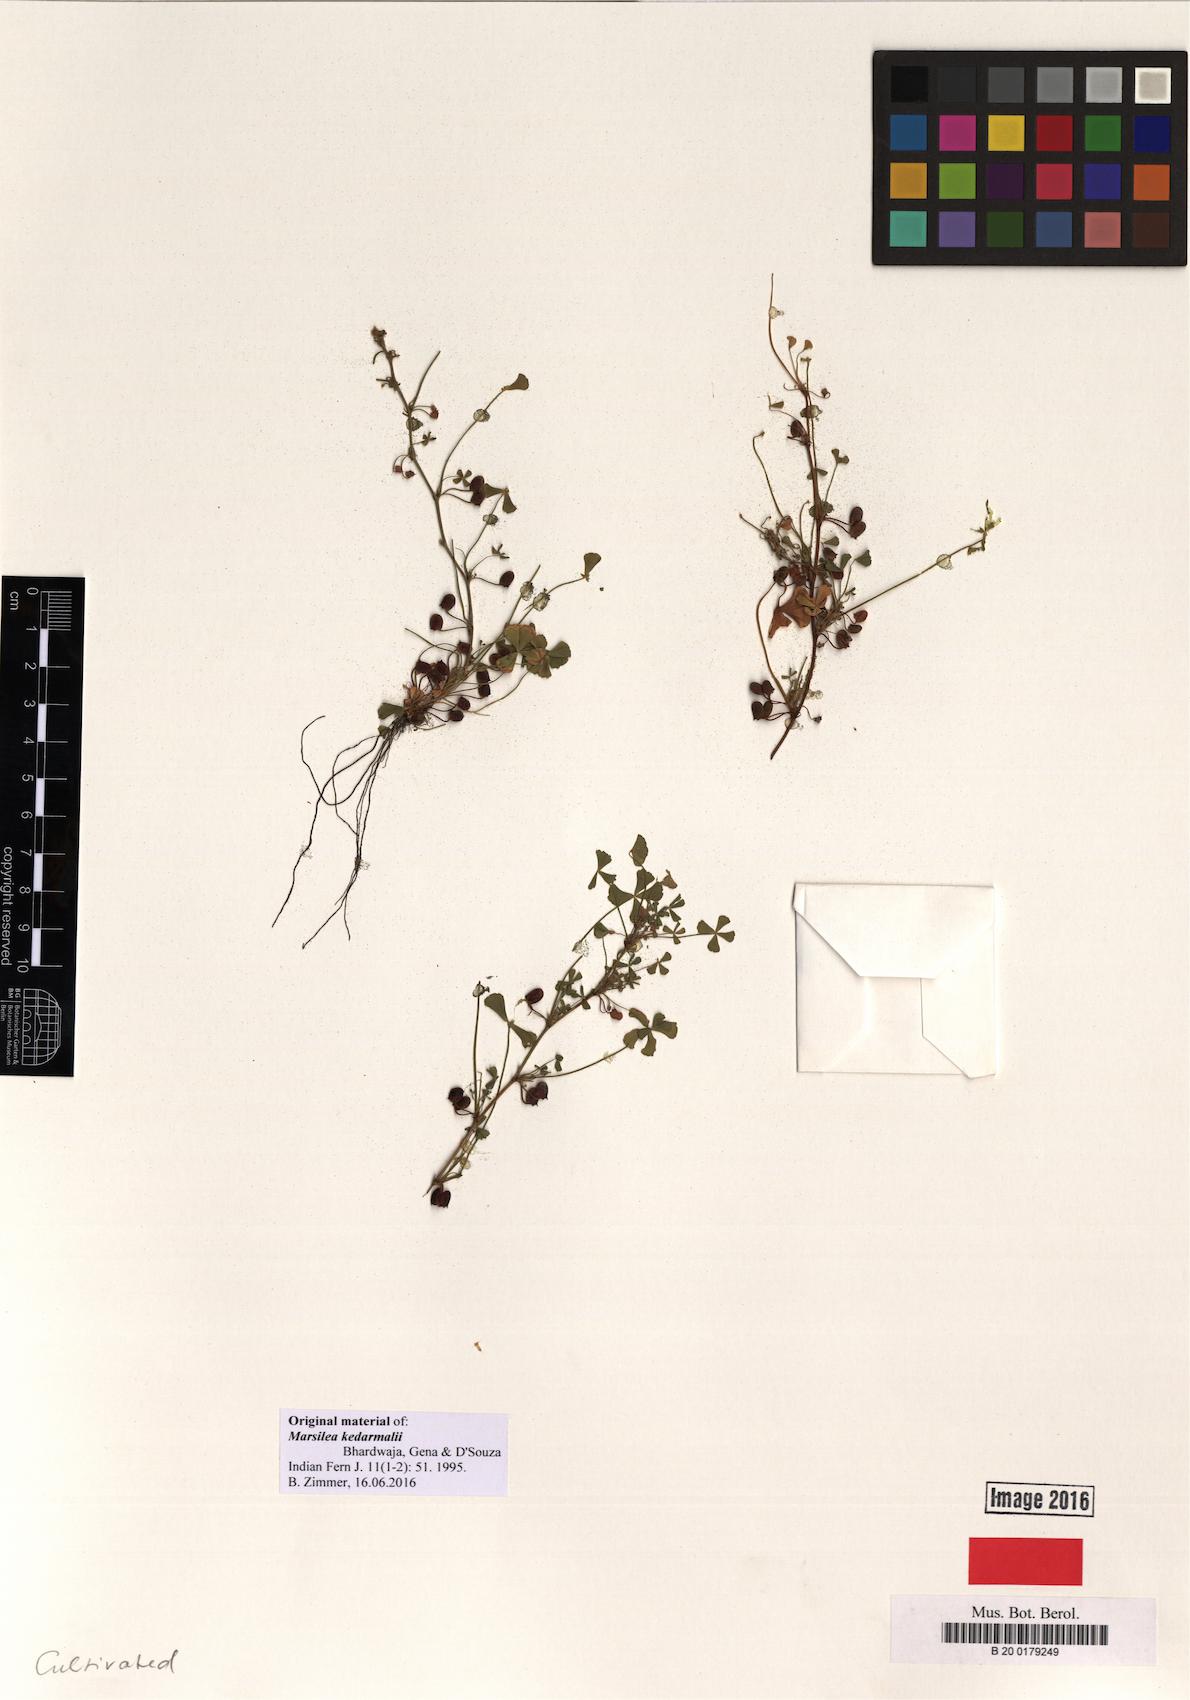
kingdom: Plantae
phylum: Tracheophyta
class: Polypodiopsida
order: Salviniales
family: Marsileaceae
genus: Marsilea
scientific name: Marsilea minuta
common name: Dwarf waterclover
